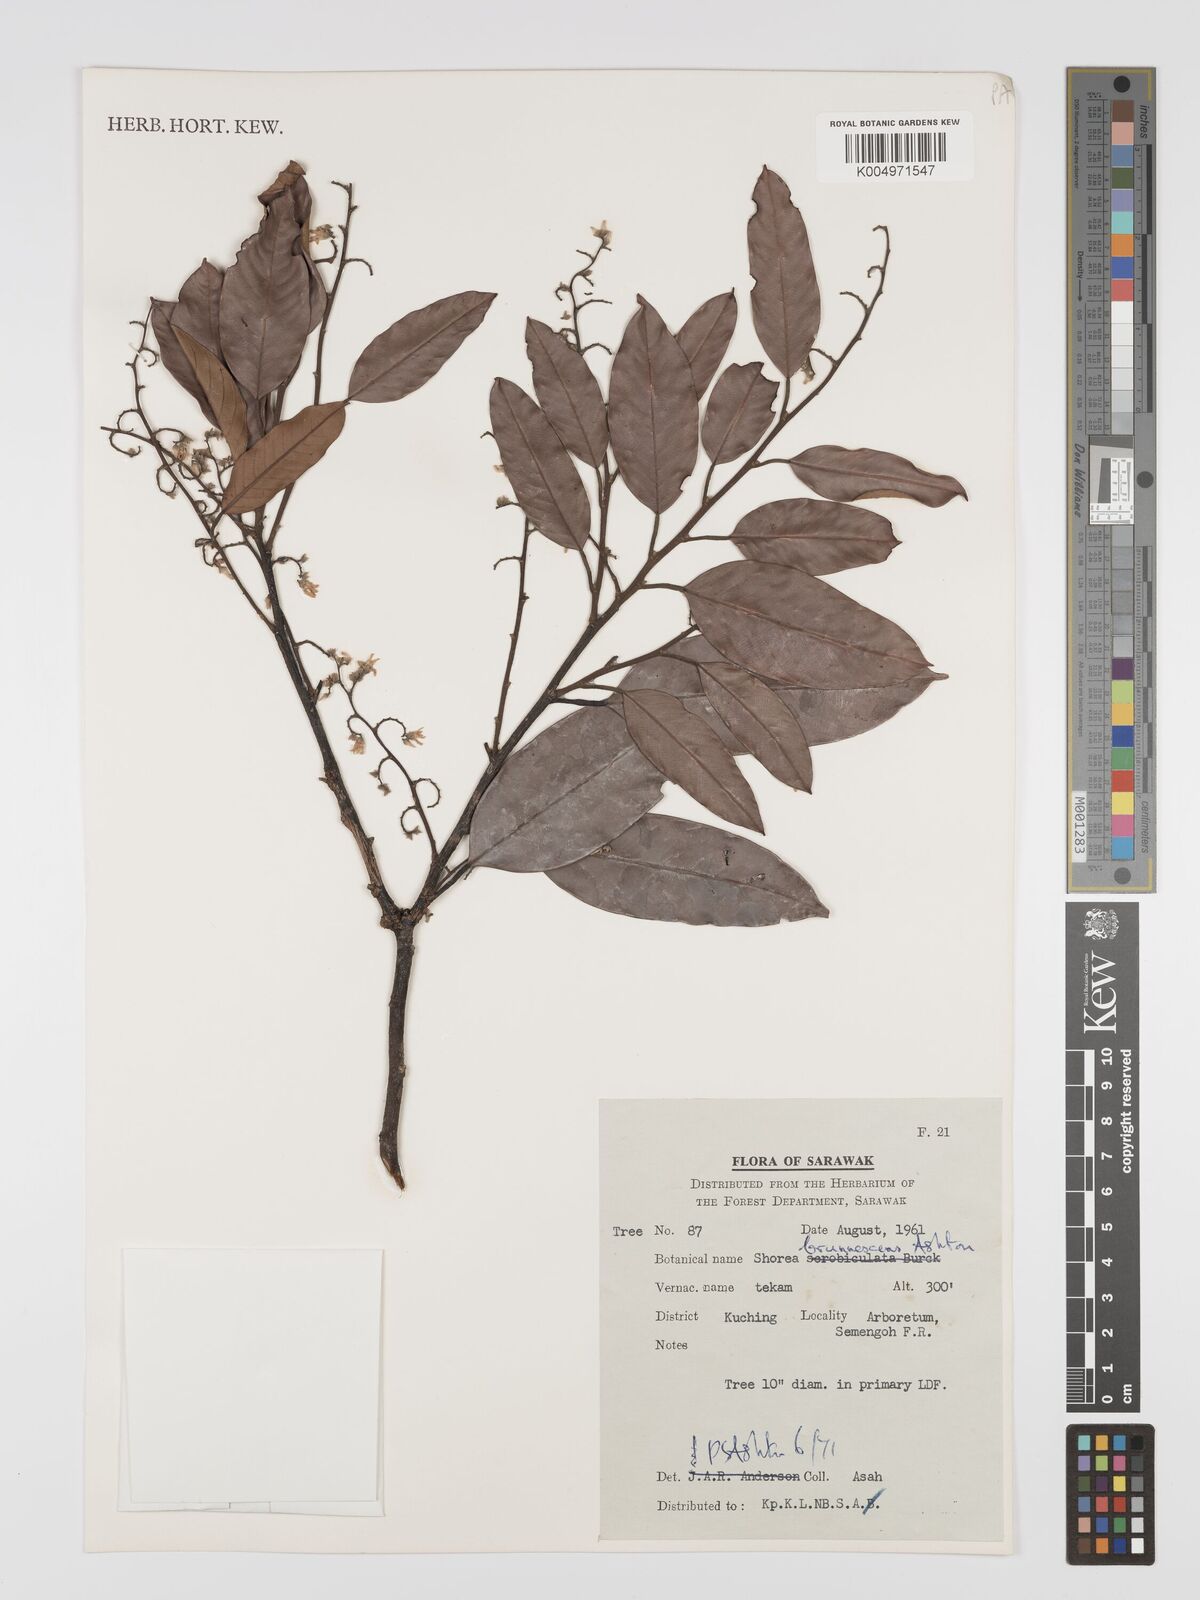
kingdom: Plantae
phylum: Tracheophyta
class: Magnoliopsida
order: Malvales
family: Dipterocarpaceae
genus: Shorea
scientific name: Shorea brunnescens
